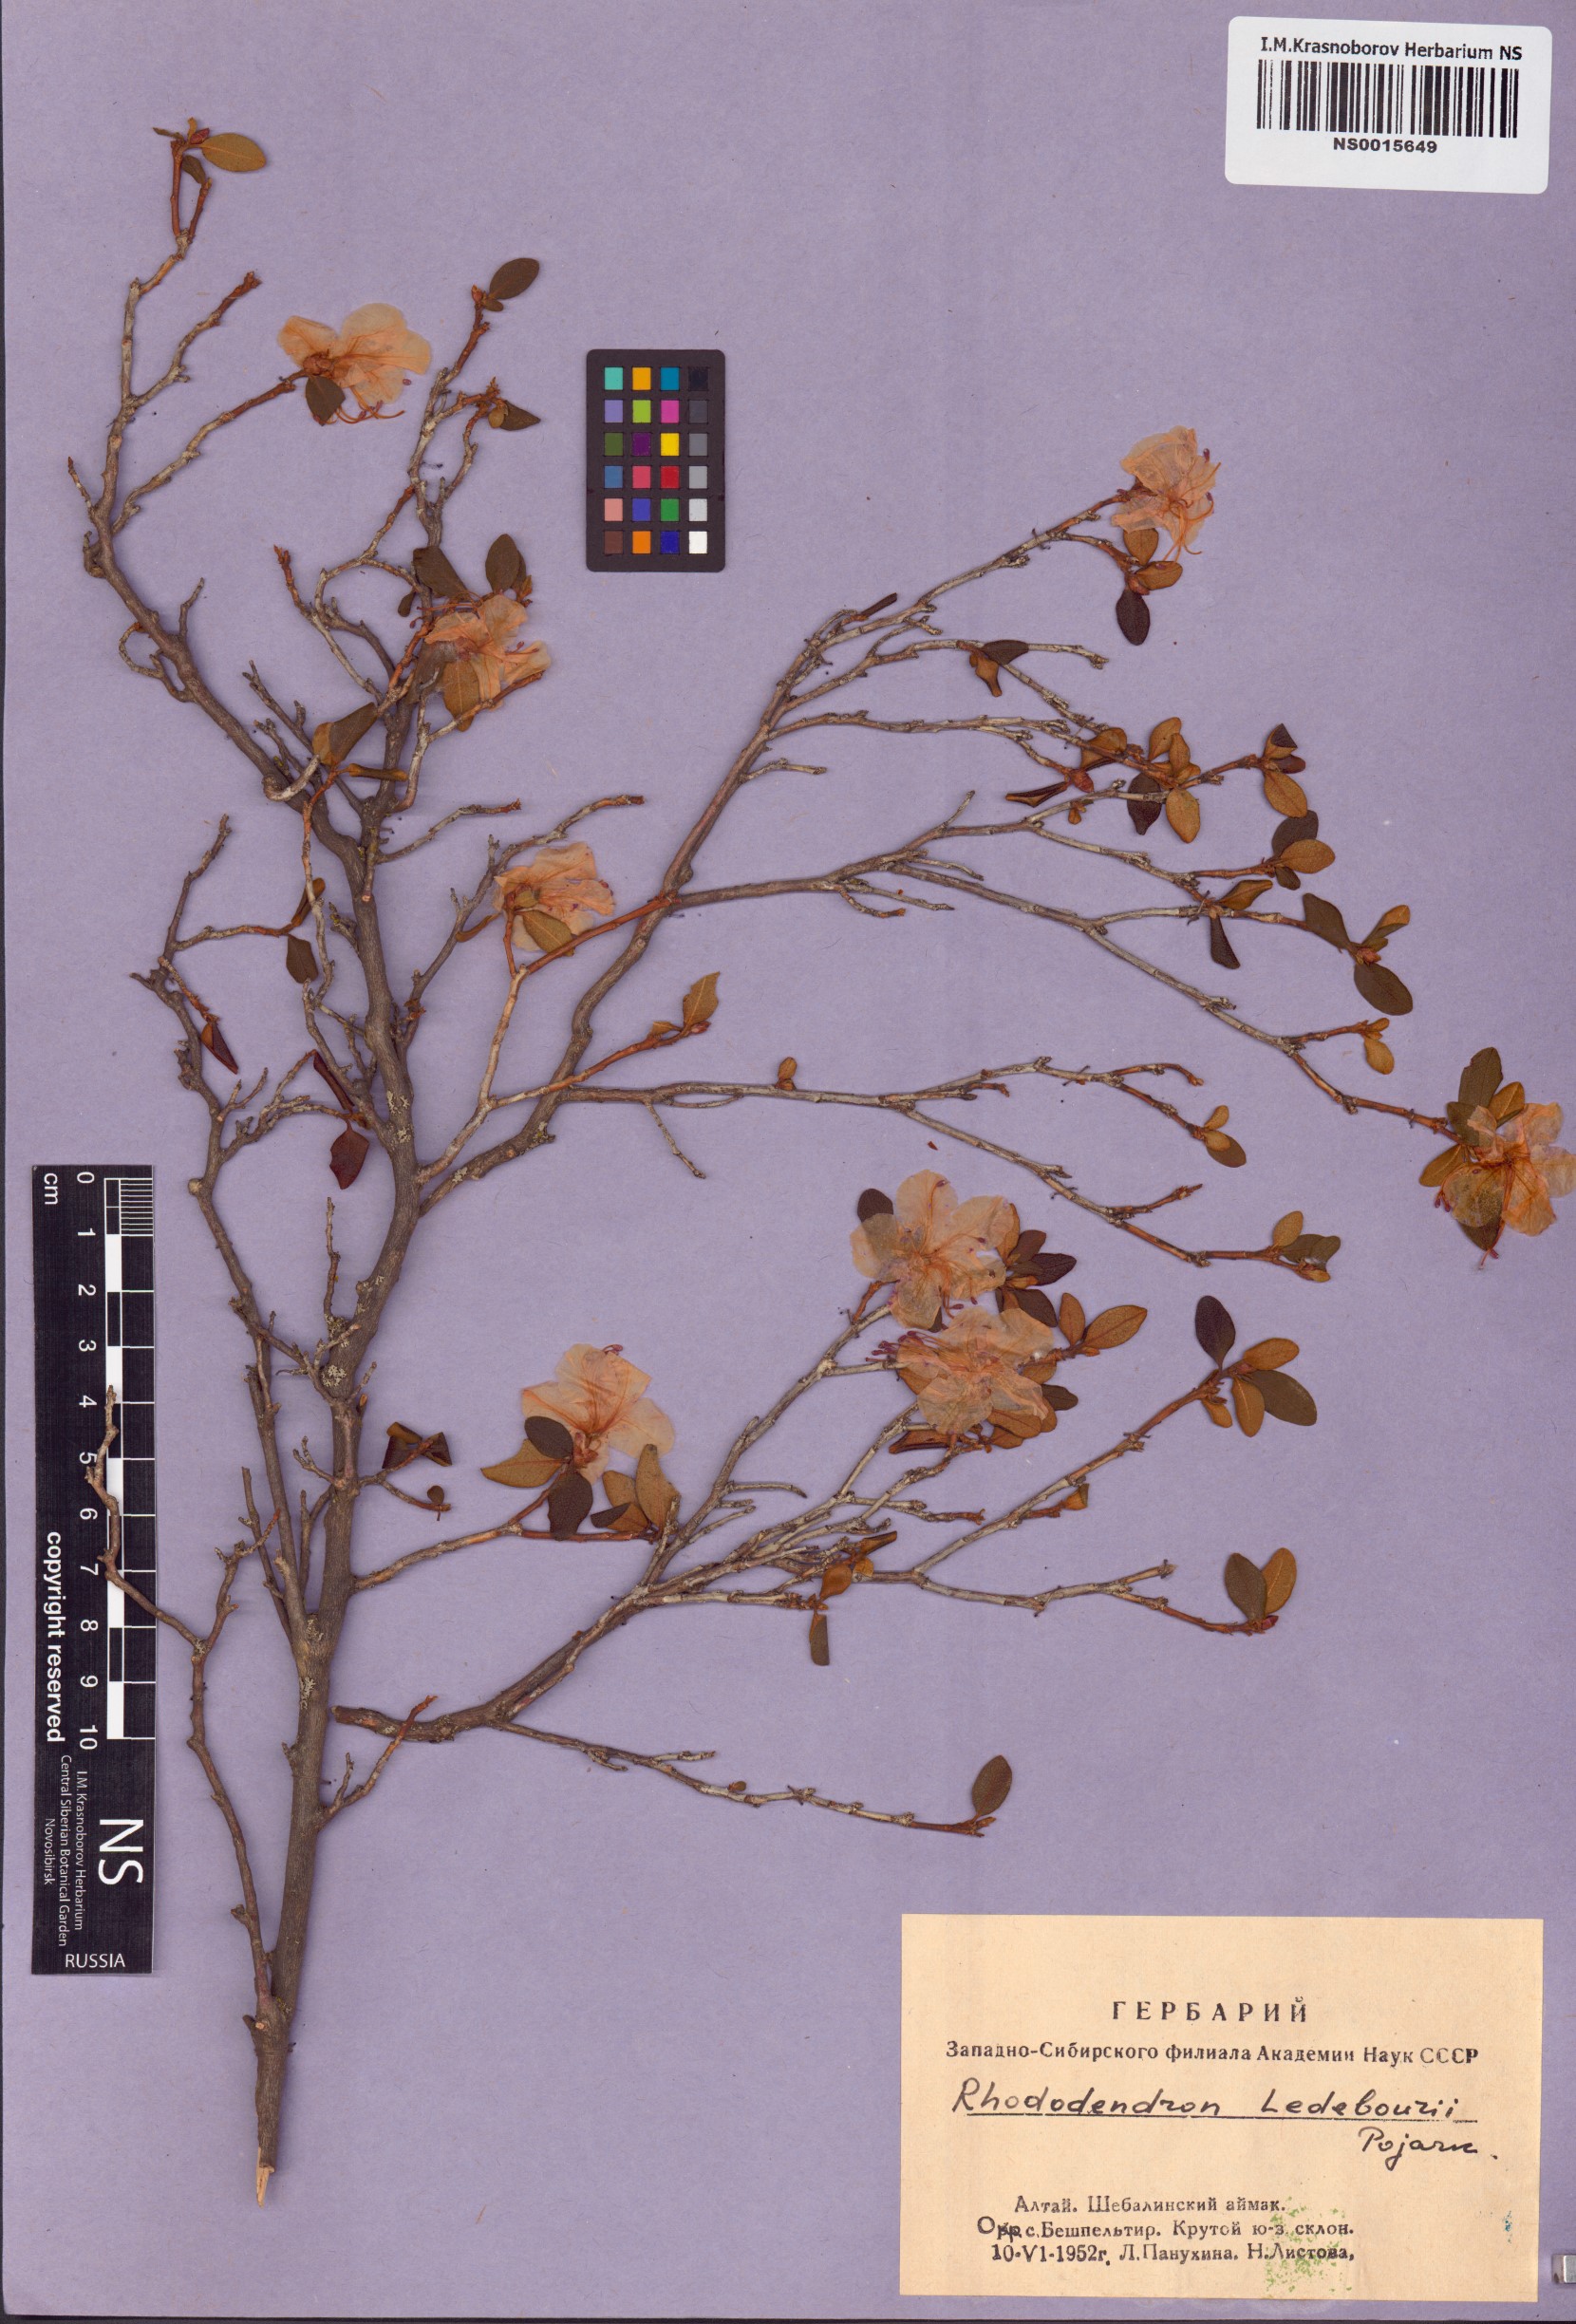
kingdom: Plantae
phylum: Tracheophyta
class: Magnoliopsida
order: Ericales
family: Ericaceae
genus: Rhododendron
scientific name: Rhododendron dauricum
